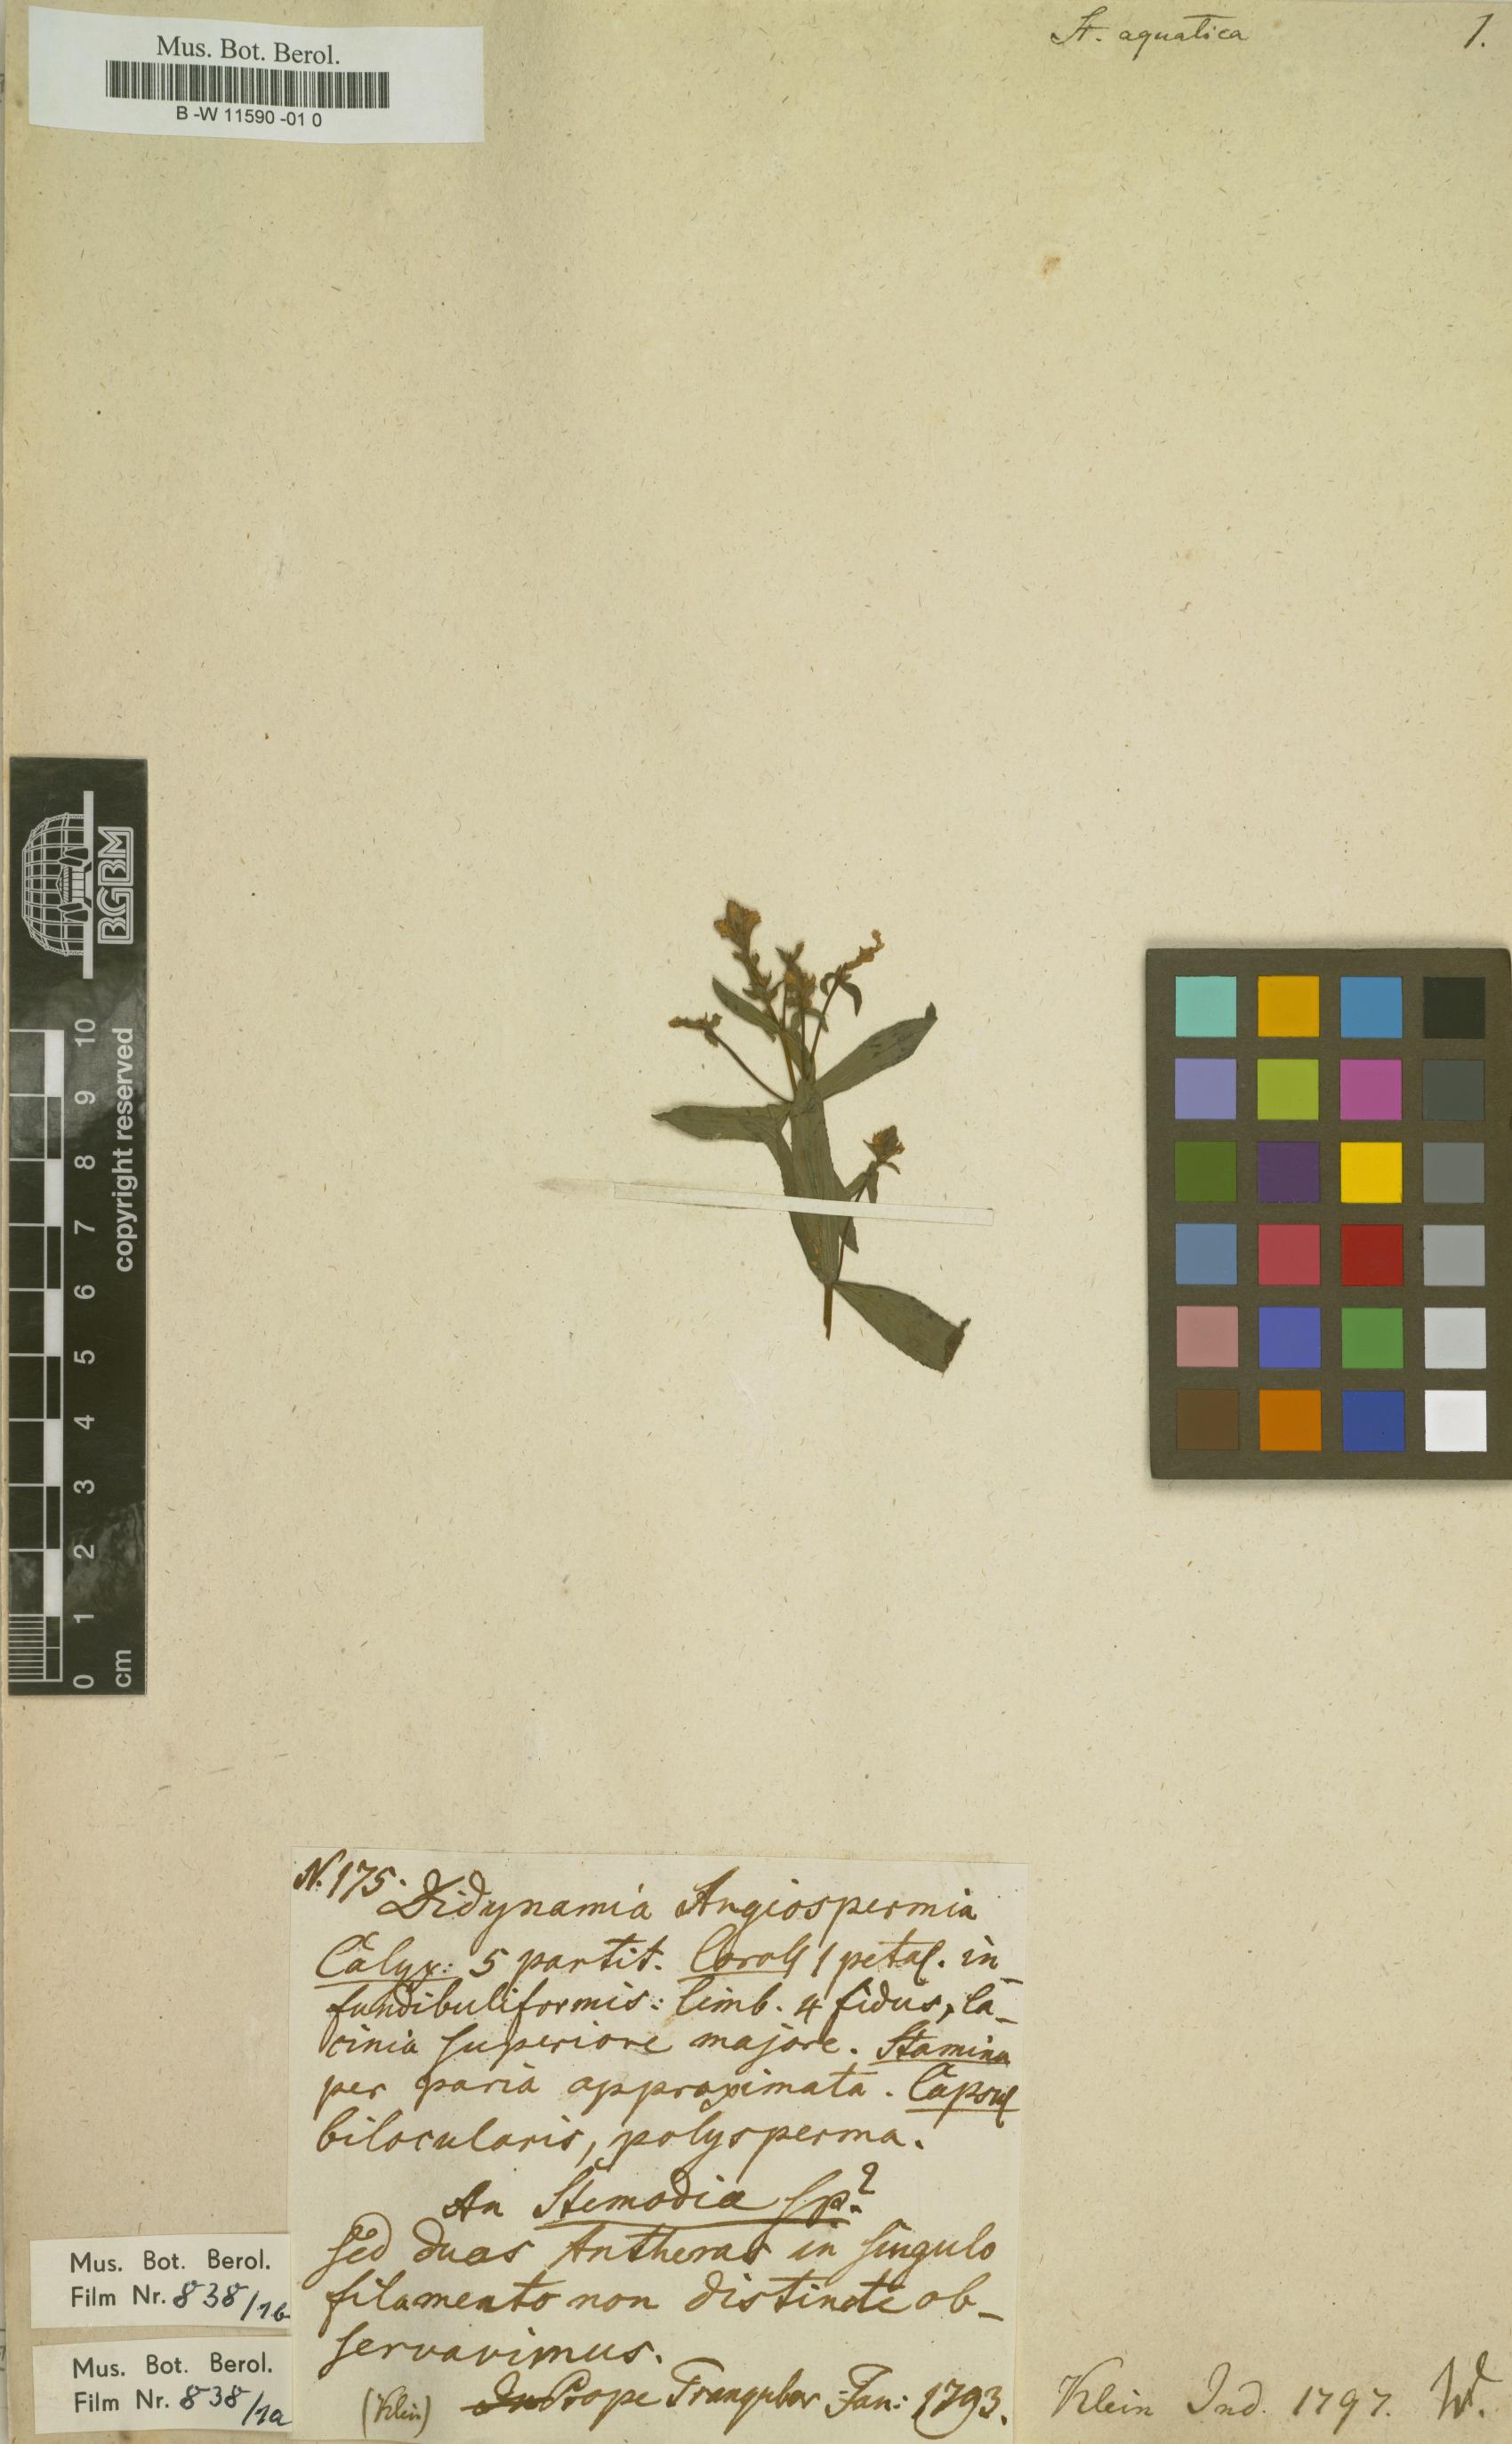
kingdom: Plantae
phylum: Tracheophyta
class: Magnoliopsida
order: Lamiales
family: Plantaginaceae
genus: Limnophila
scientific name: Limnophila polystachya
